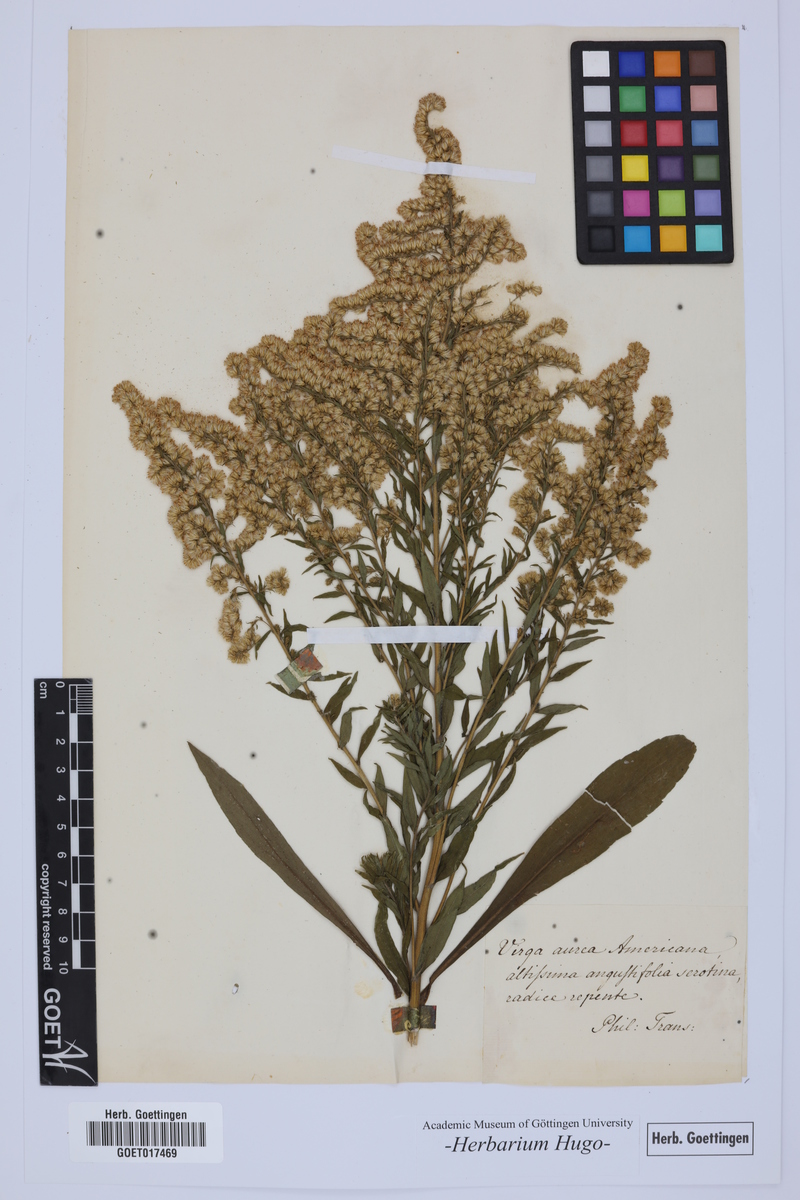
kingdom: Animalia
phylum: Arthropoda
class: Insecta
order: Lepidoptera
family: Hesperiidae
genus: Virga
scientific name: Virga
